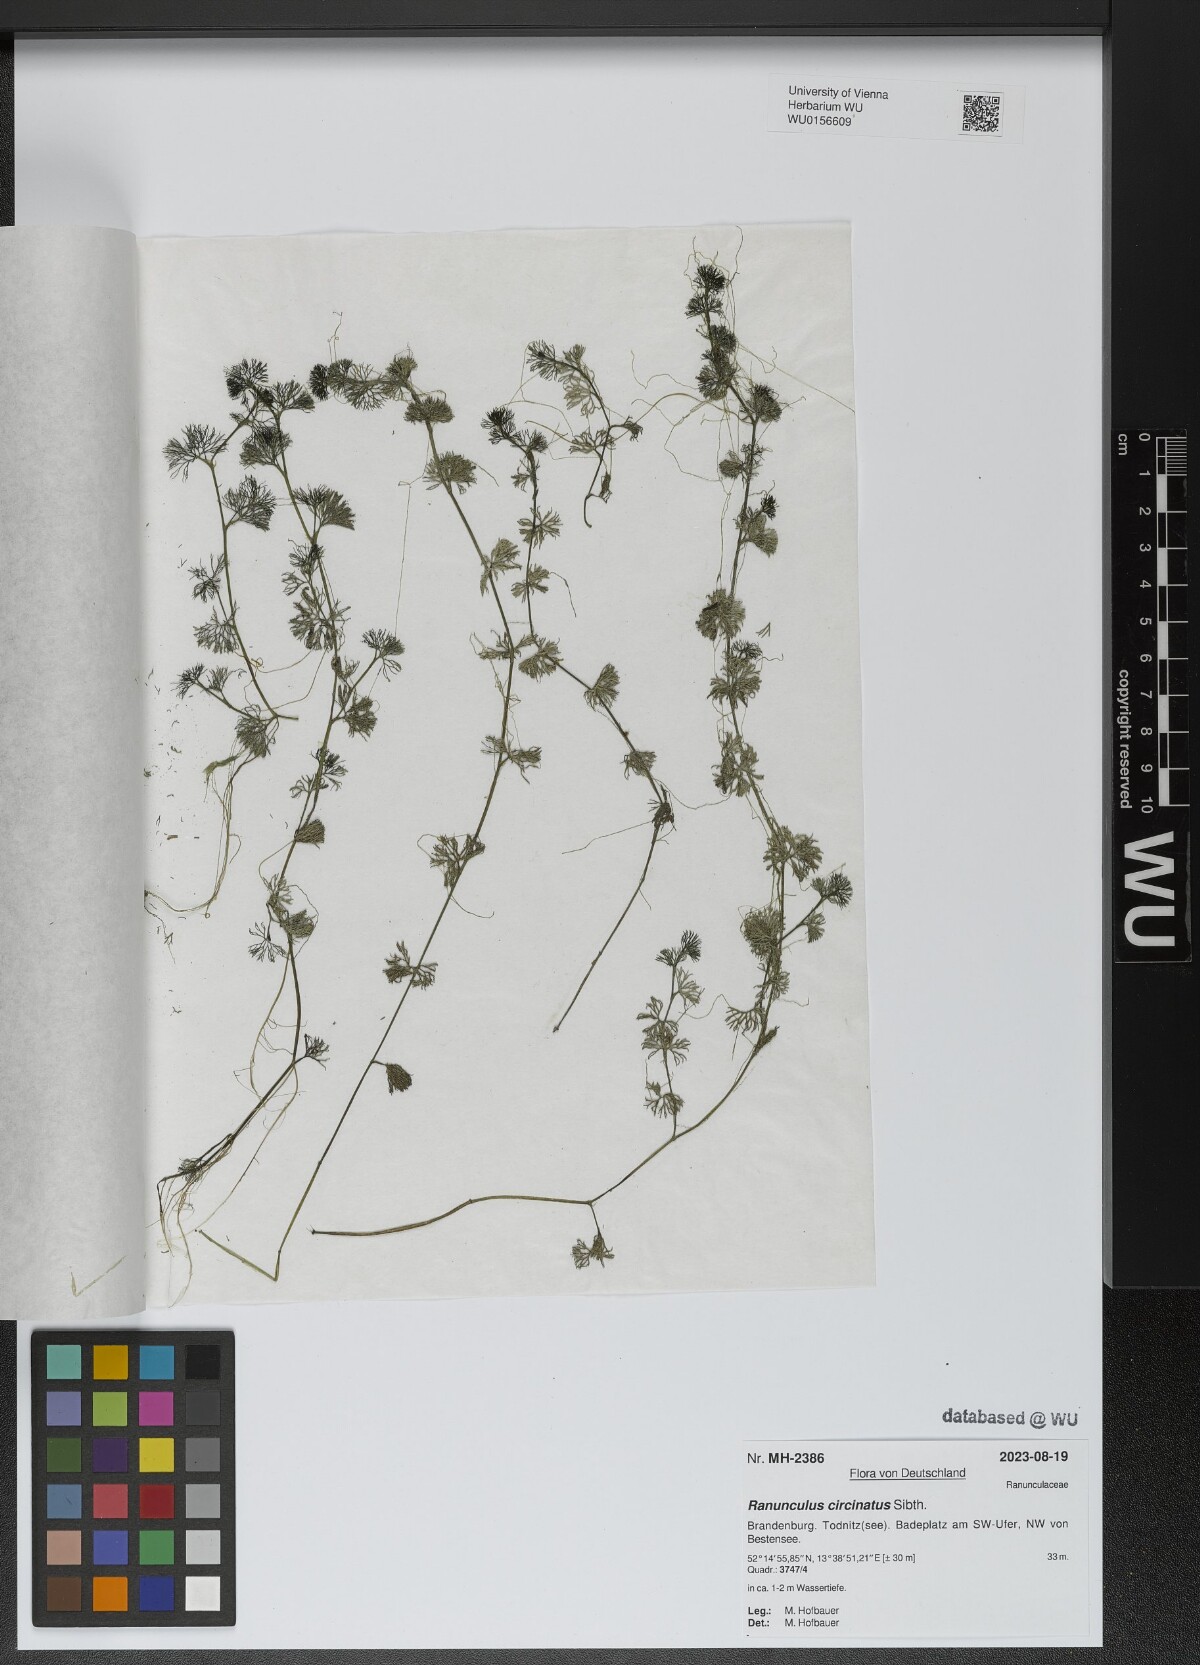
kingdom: Plantae
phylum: Tracheophyta
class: Magnoliopsida
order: Ranunculales
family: Ranunculaceae
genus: Ranunculus
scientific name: Ranunculus circinatus
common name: Fan-leaved water-crowfoot
